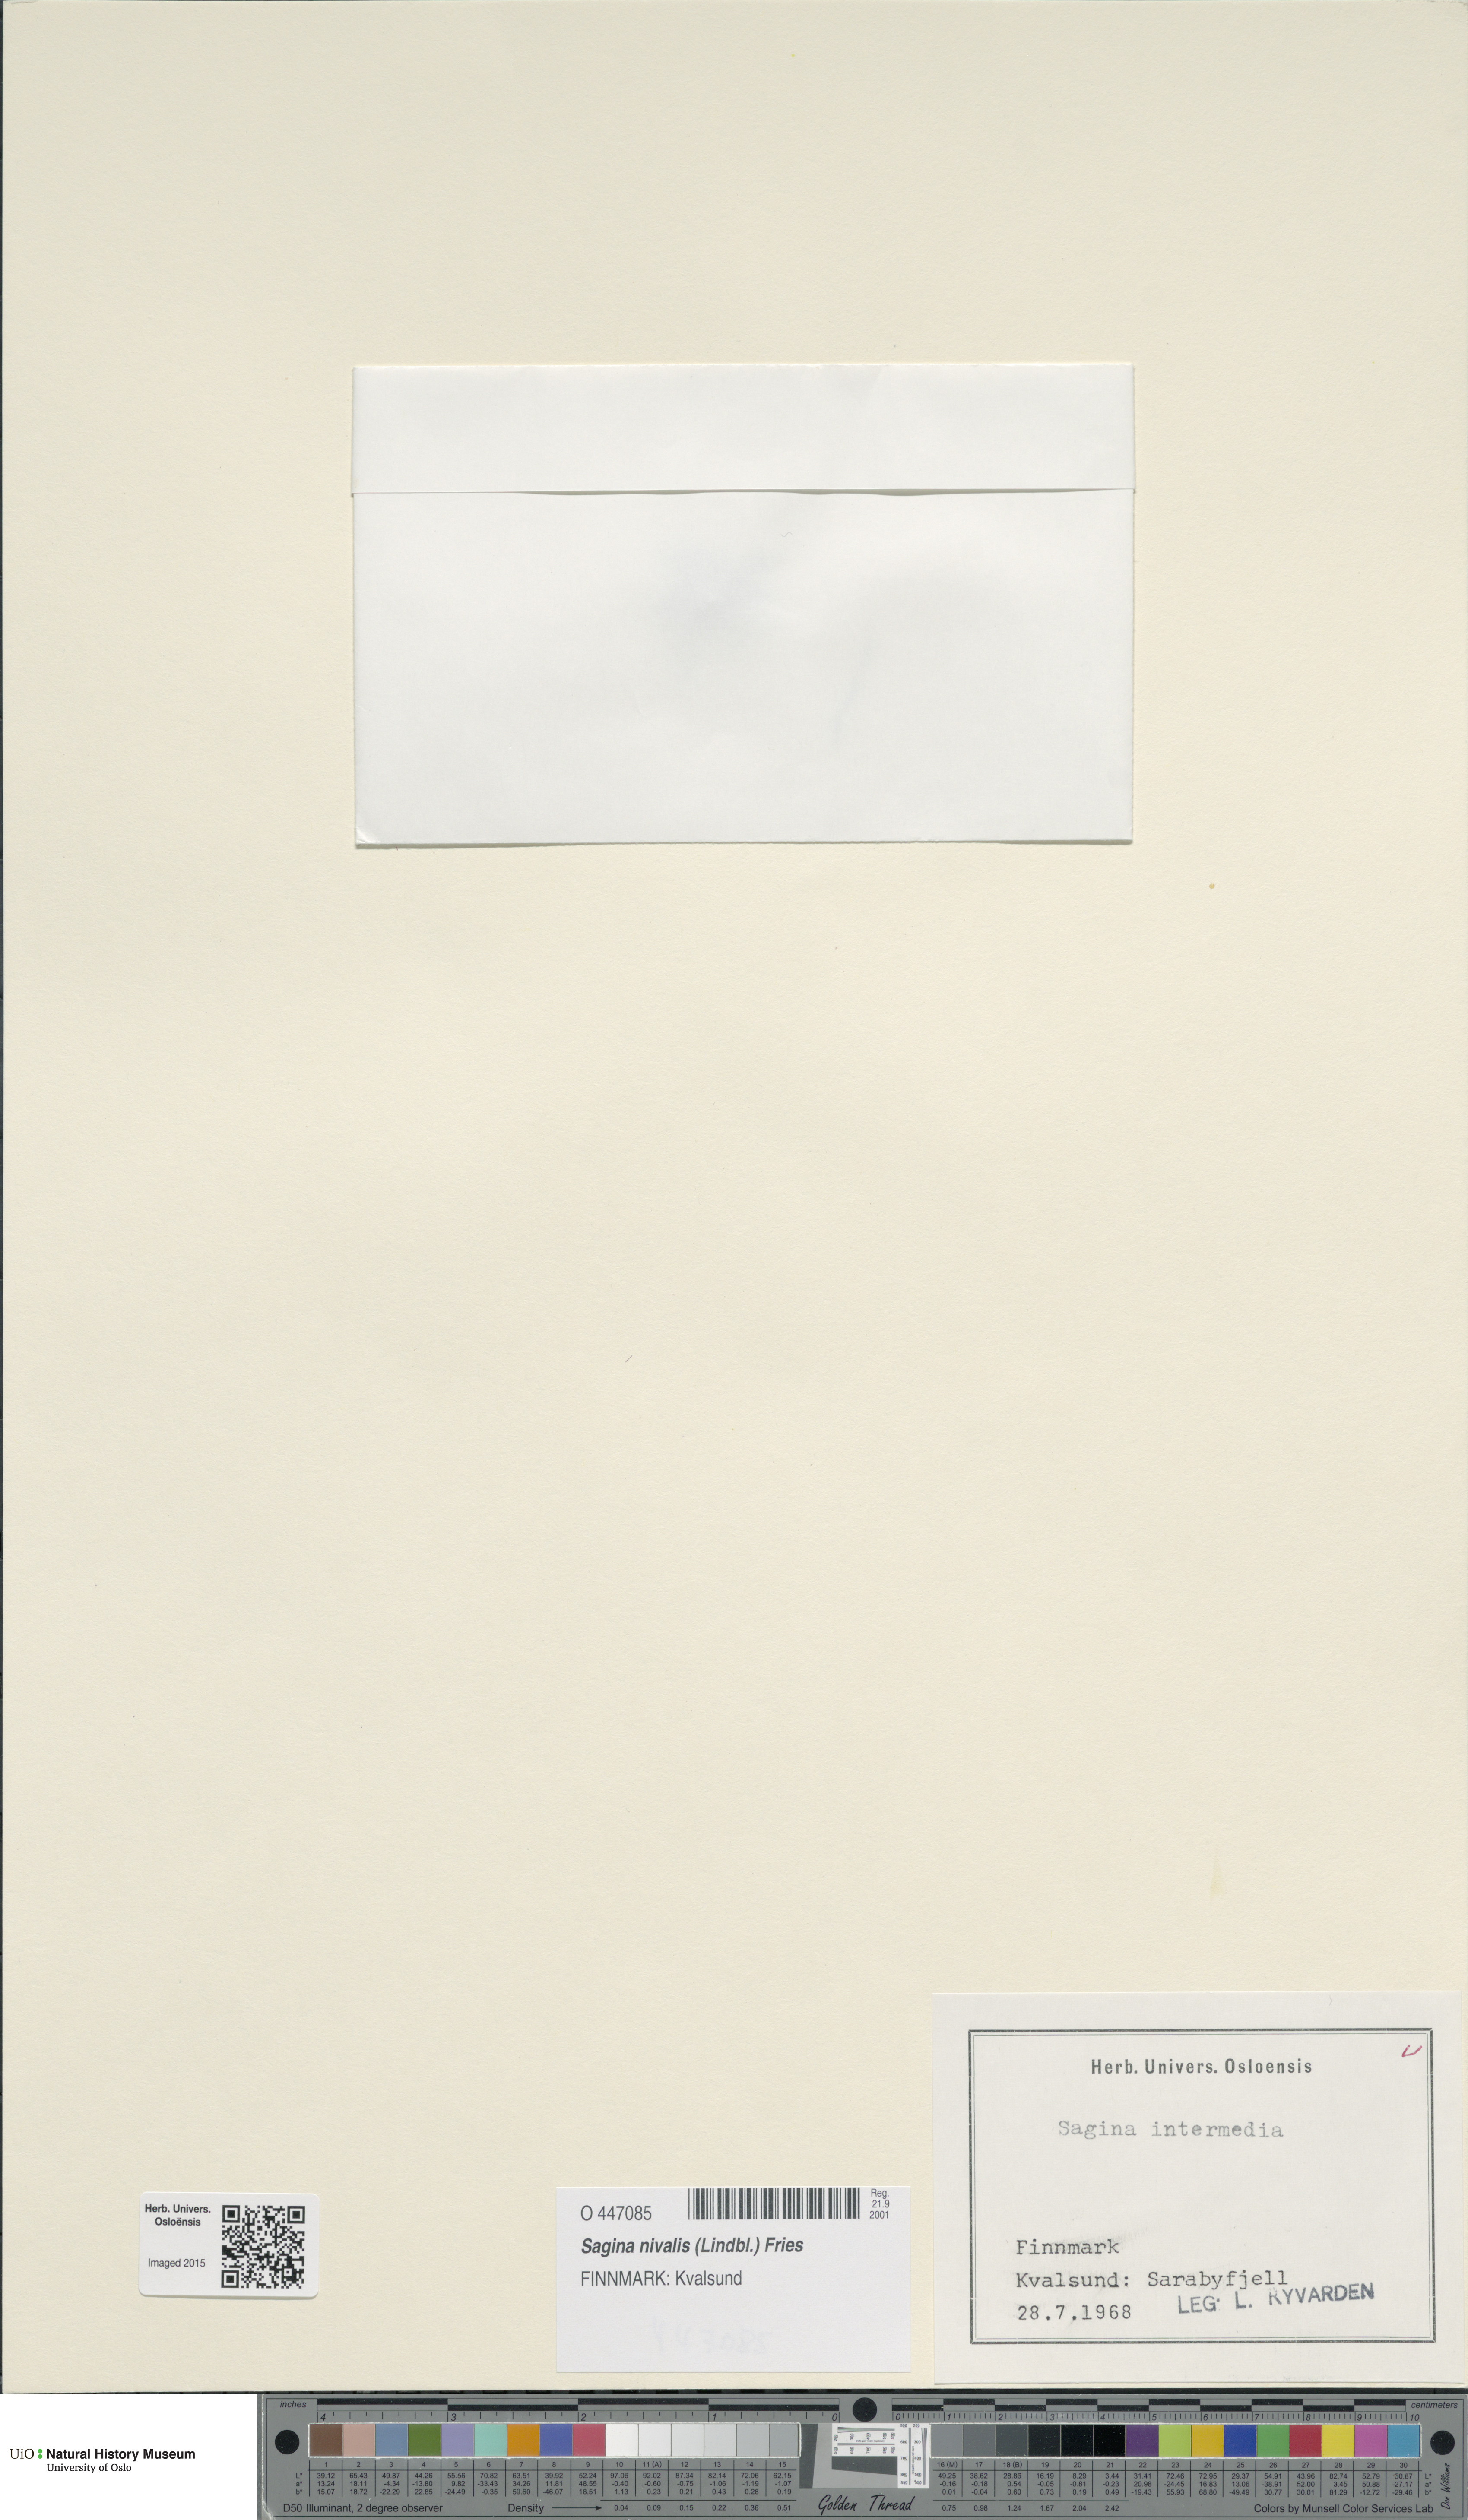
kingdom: Plantae
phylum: Tracheophyta
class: Magnoliopsida
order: Caryophyllales
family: Caryophyllaceae
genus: Sagina
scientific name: Sagina nivalis
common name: Snow pearlwort
